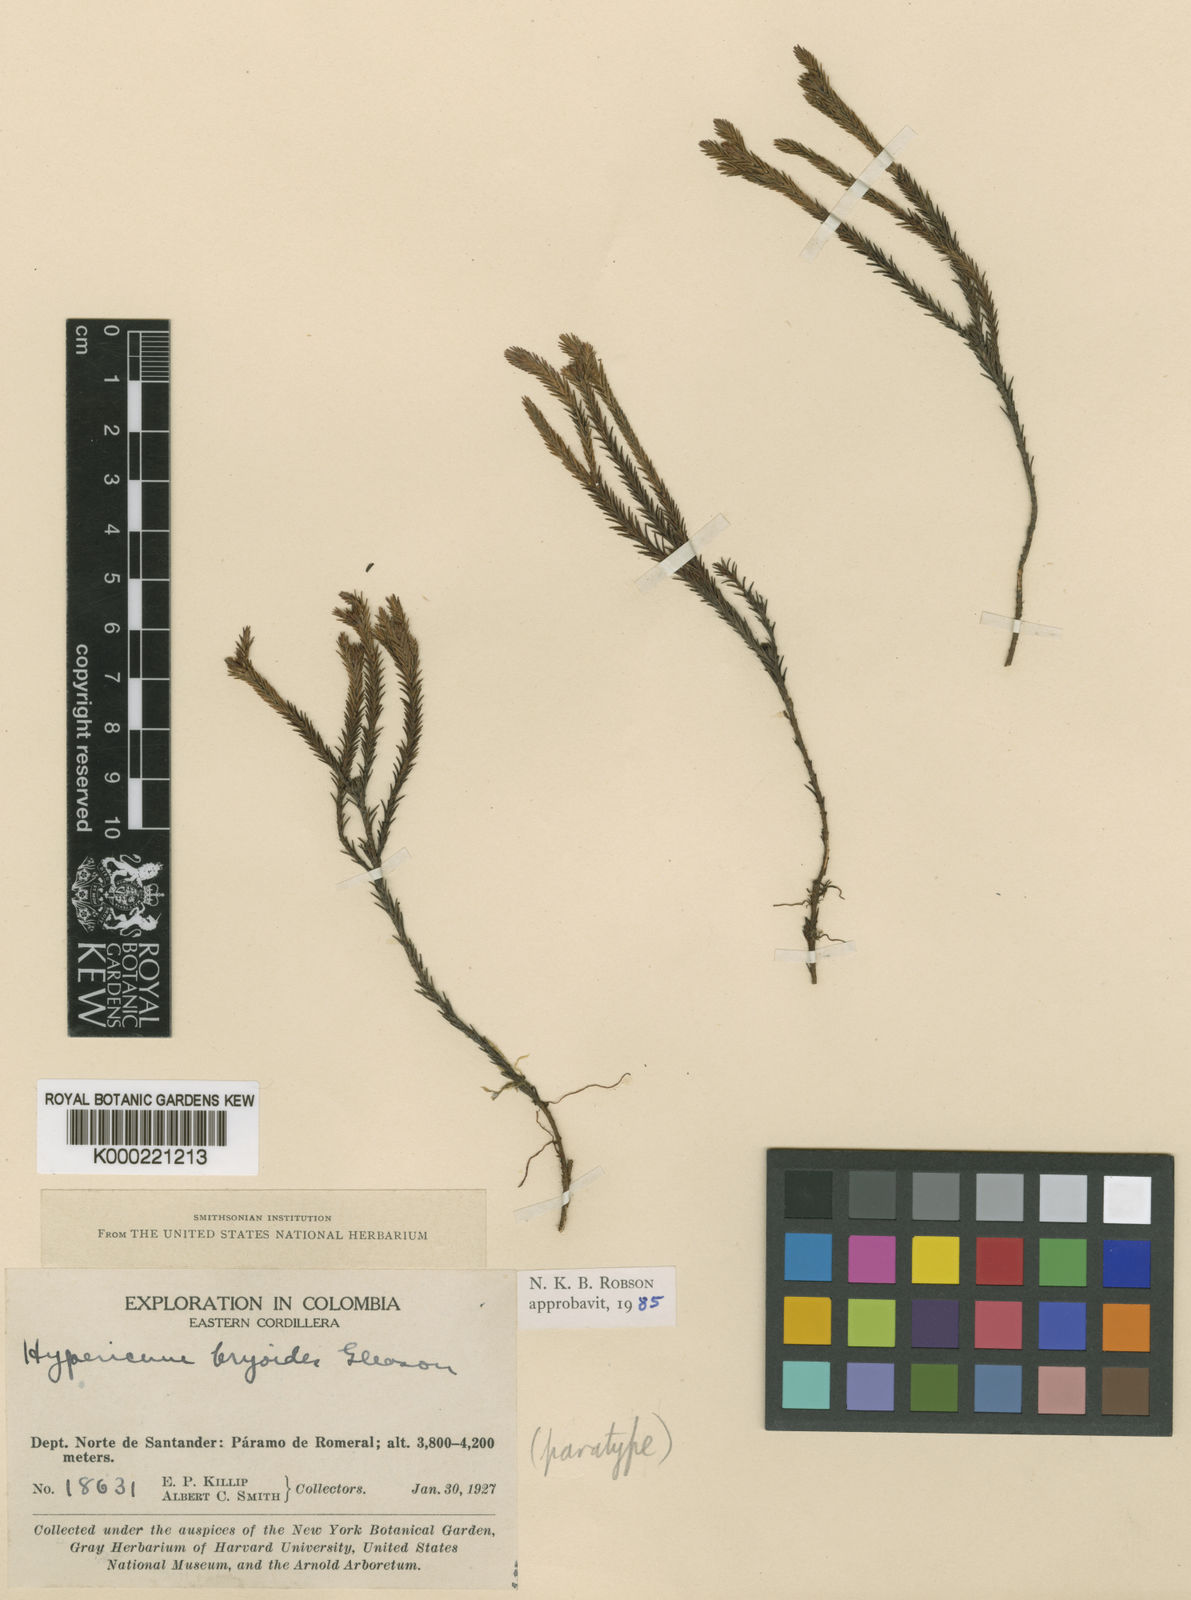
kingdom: Plantae
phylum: Tracheophyta
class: Magnoliopsida
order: Malpighiales
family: Hypericaceae
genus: Hypericum
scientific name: Hypericum bryoides
